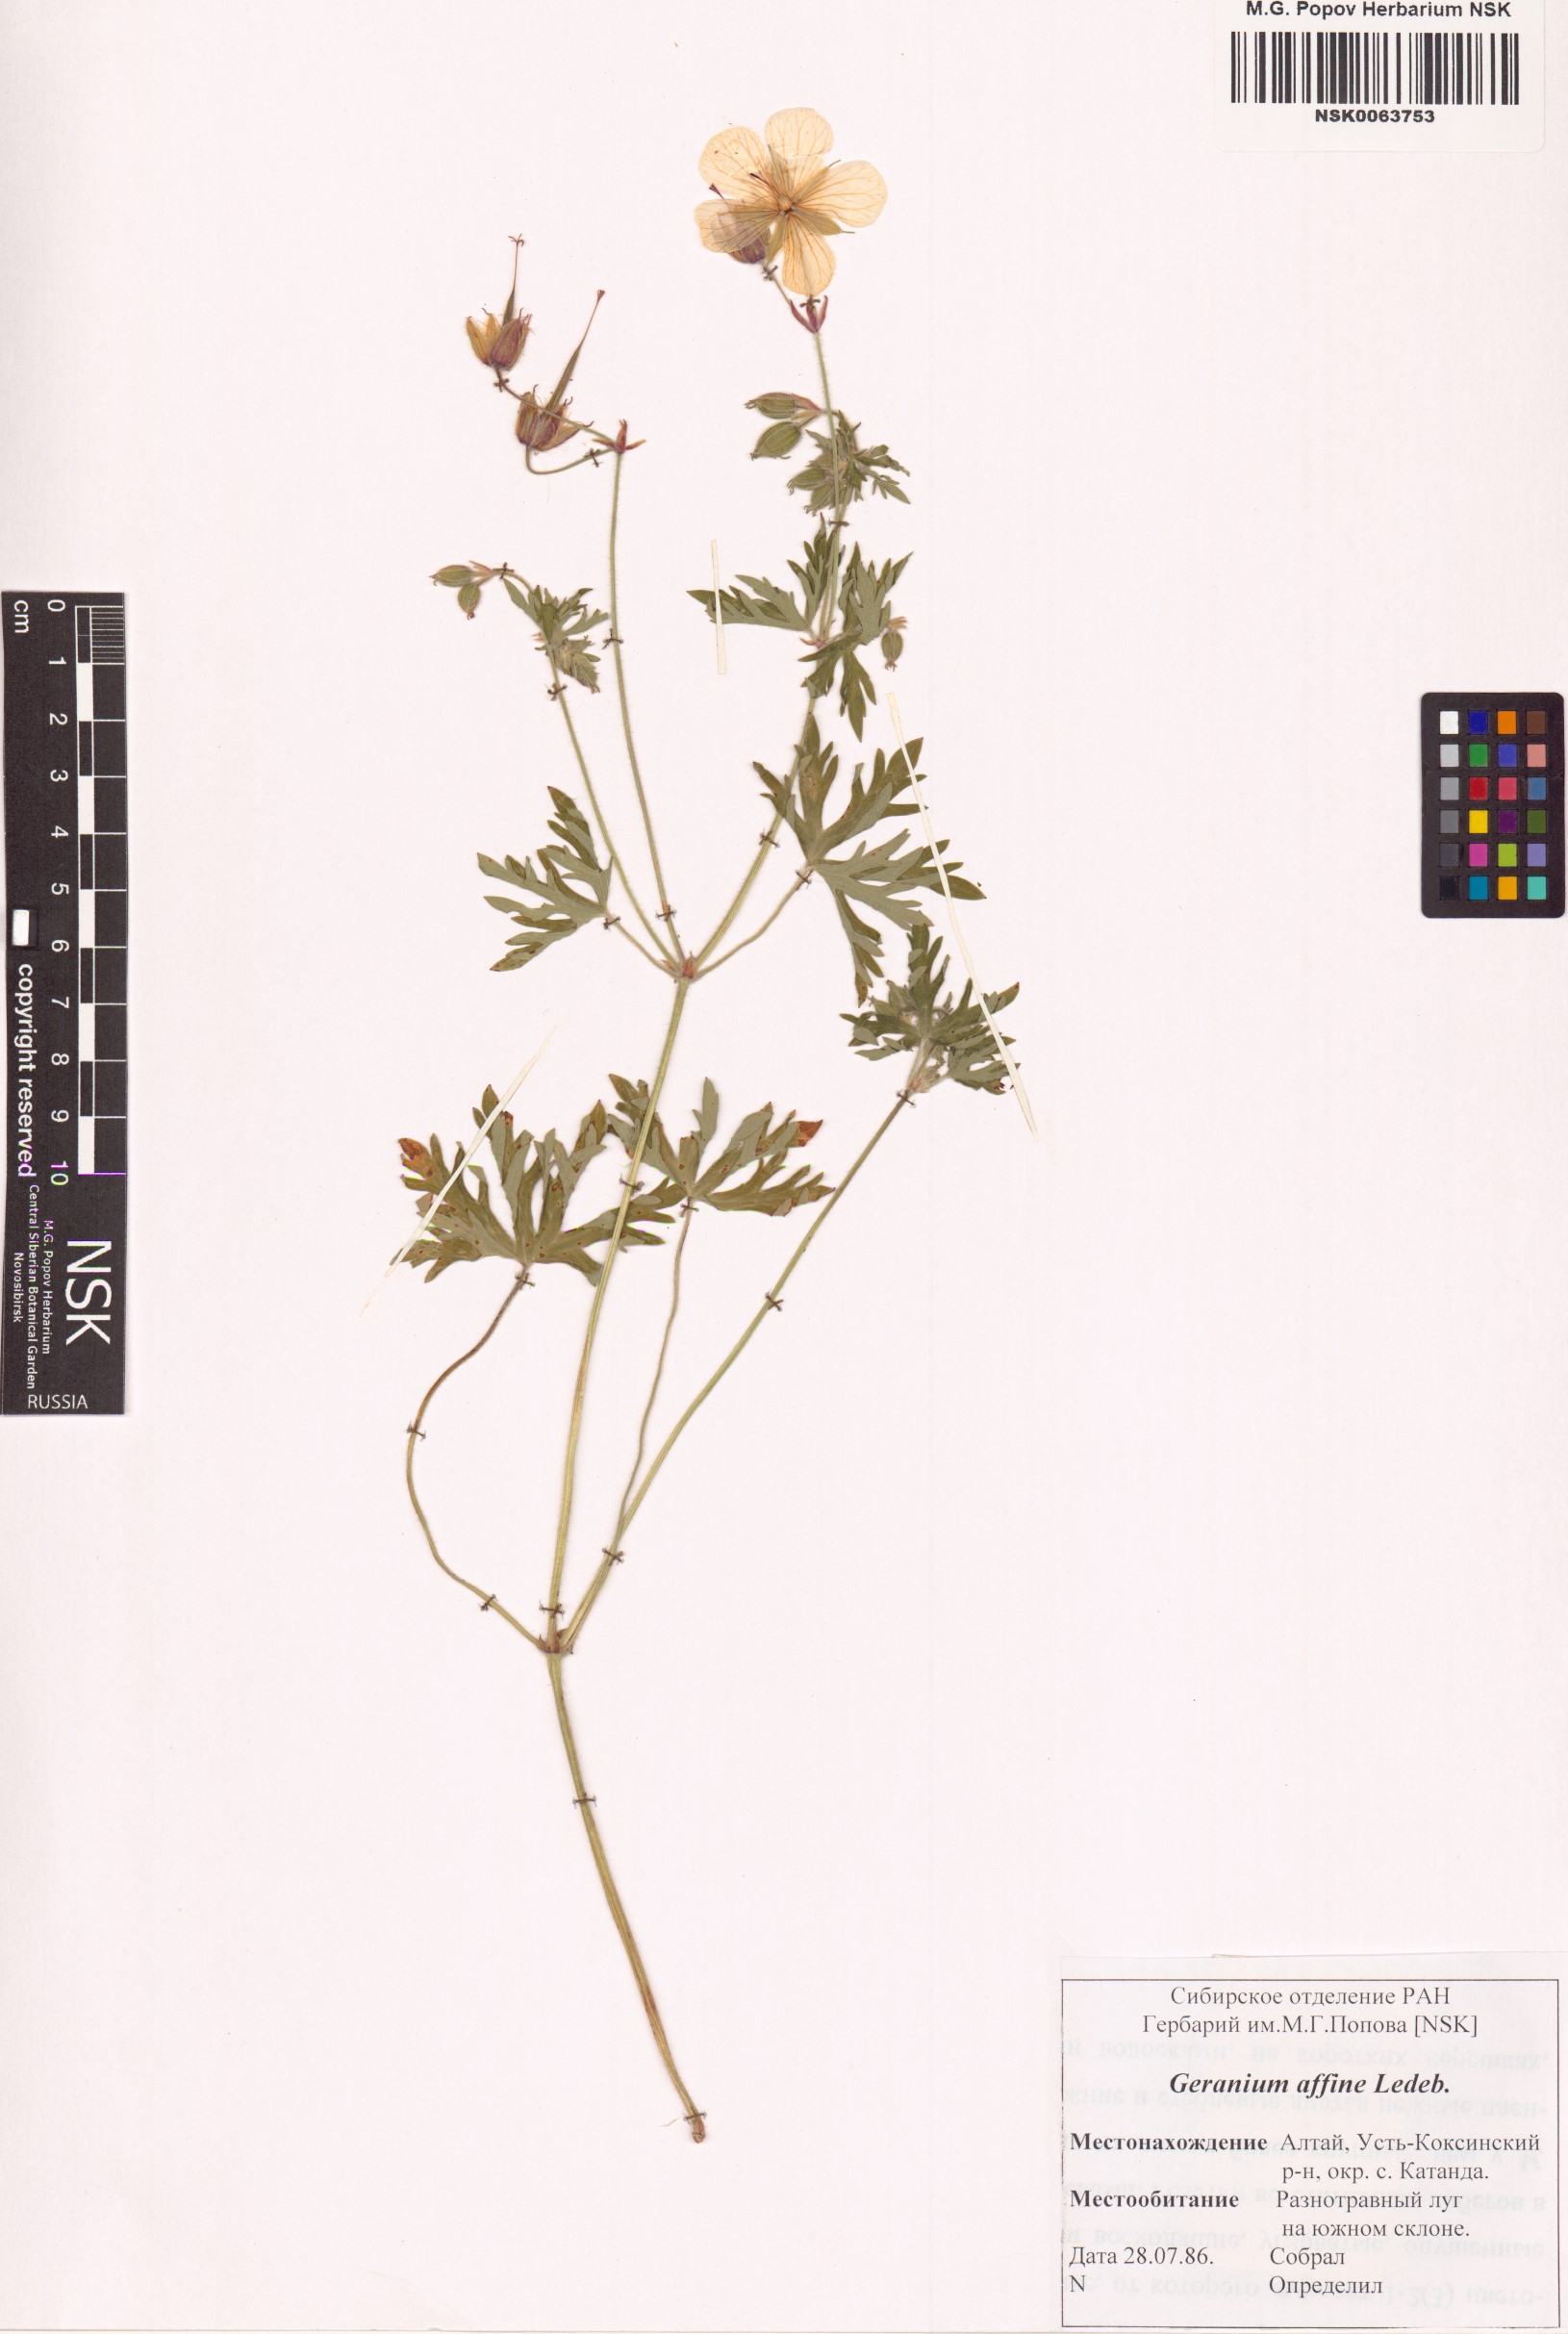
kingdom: Plantae
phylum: Tracheophyta
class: Magnoliopsida
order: Geraniales
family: Geraniaceae
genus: Geranium
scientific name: Geranium pratense
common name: Meadow crane's-bill
